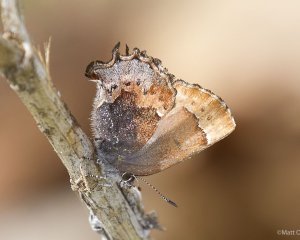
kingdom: Animalia
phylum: Arthropoda
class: Insecta
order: Lepidoptera
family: Lycaenidae
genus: Incisalia
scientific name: Incisalia henrici
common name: Henry's Elfin
